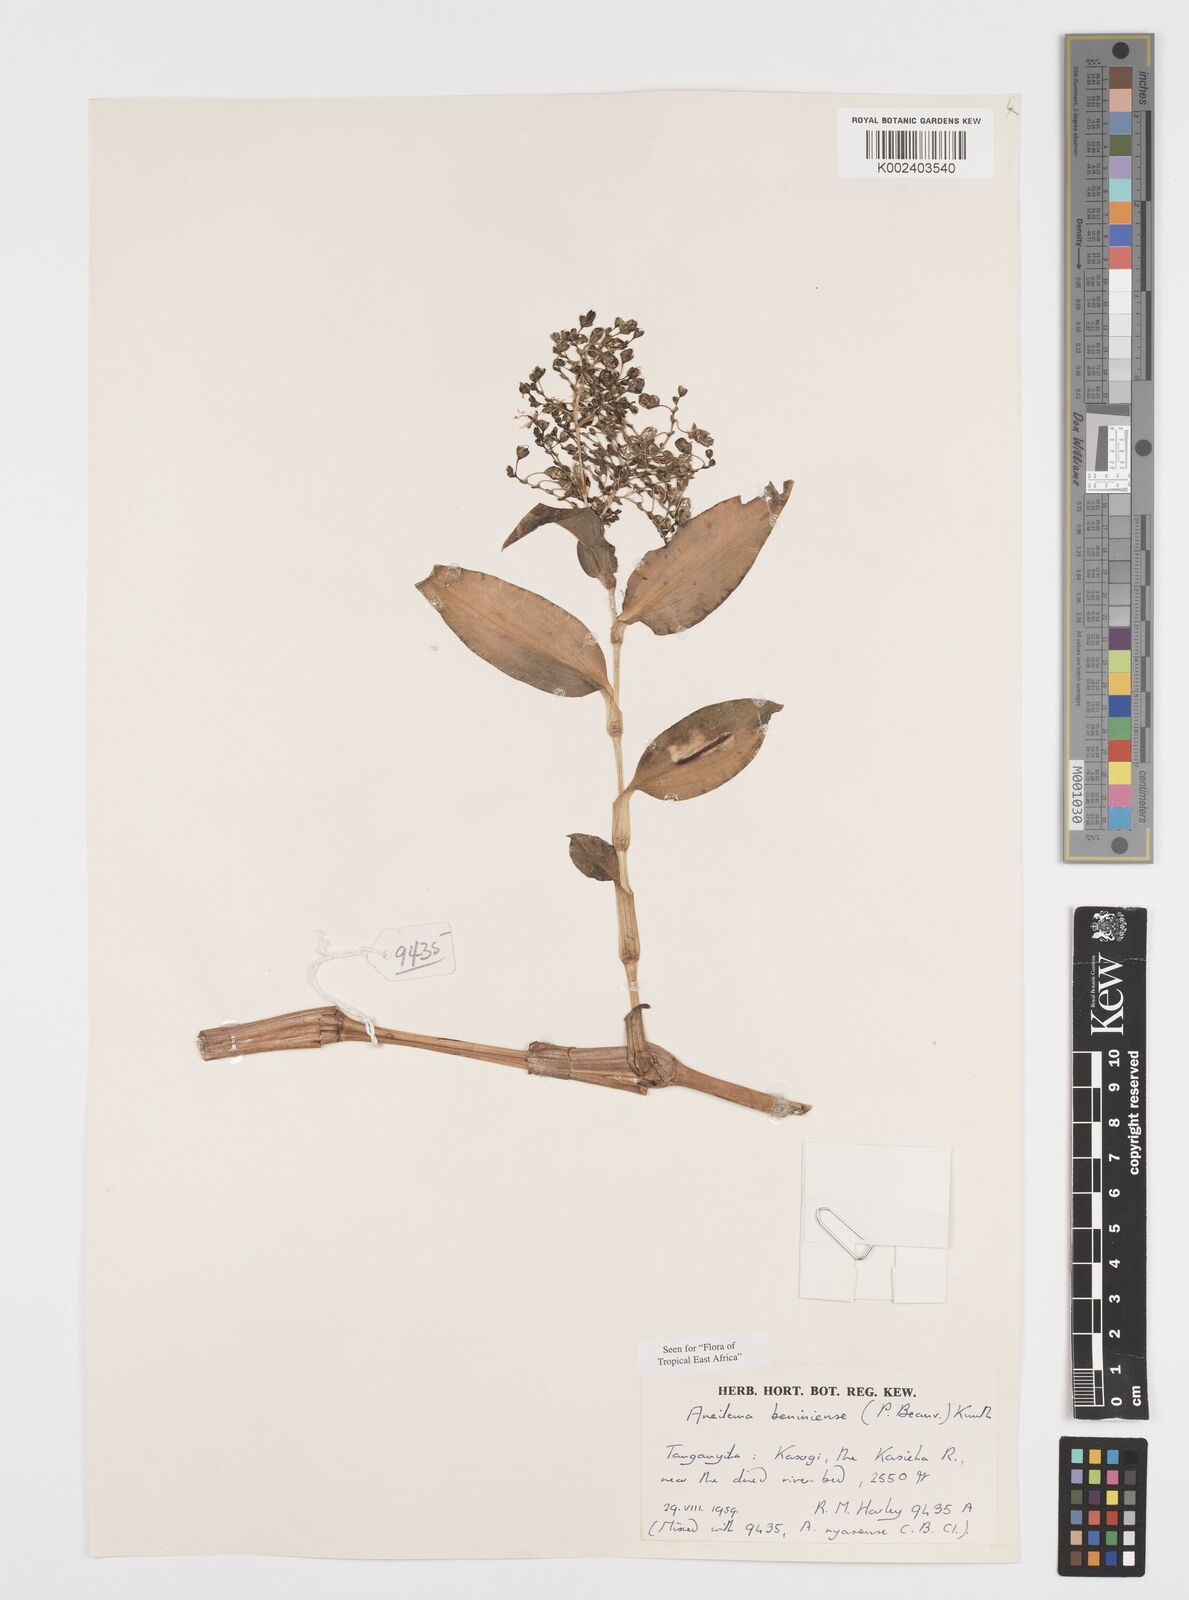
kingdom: Plantae
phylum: Tracheophyta
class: Liliopsida
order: Commelinales
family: Commelinaceae
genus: Aneilema
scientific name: Aneilema beniniense
